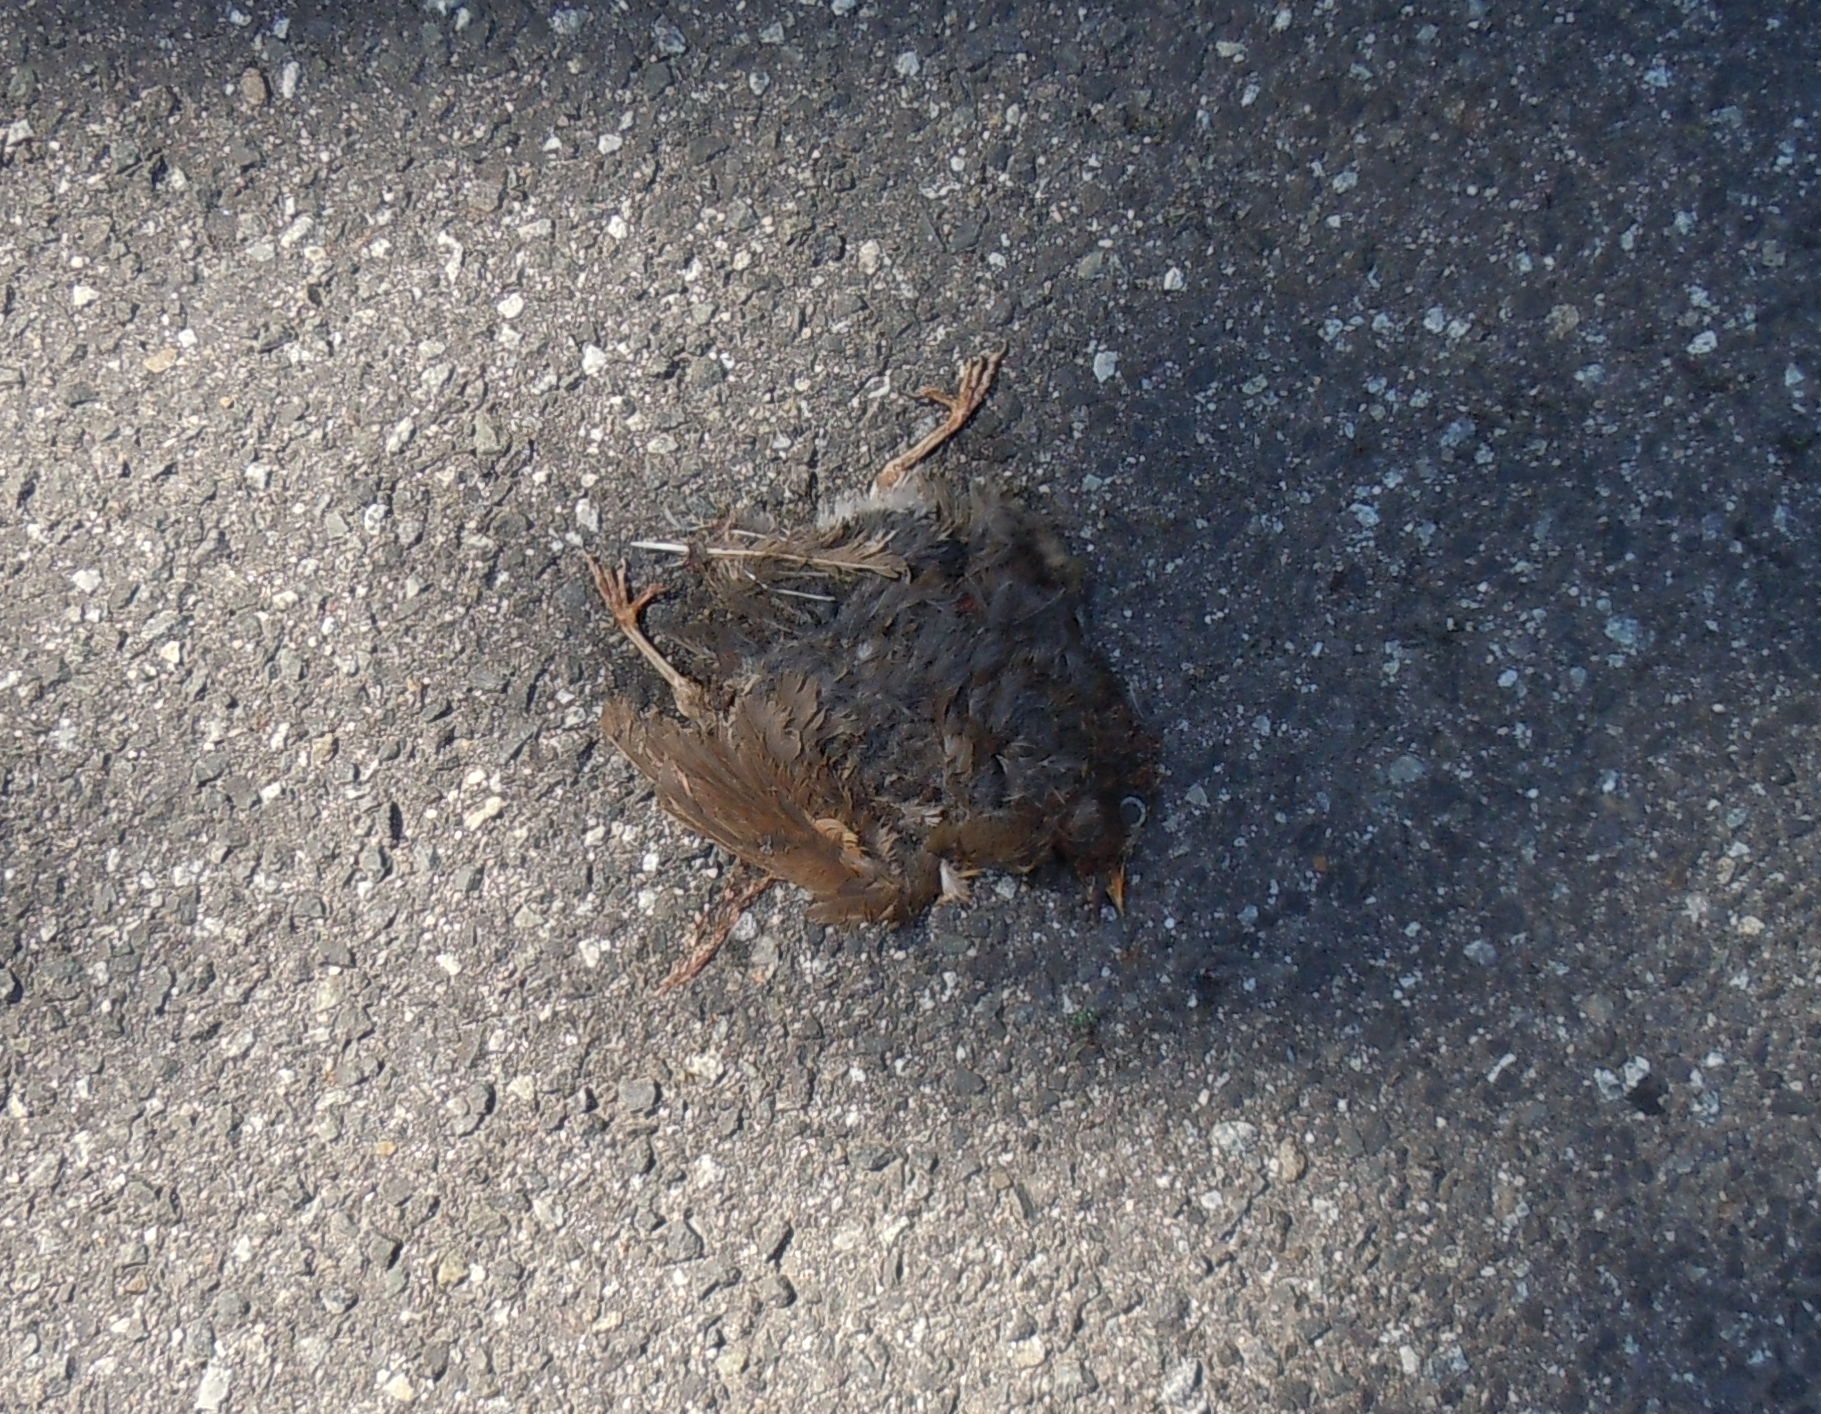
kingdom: Animalia
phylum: Chordata
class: Aves
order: Passeriformes
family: Turdidae
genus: Turdus
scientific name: Turdus merula
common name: Common blackbird
